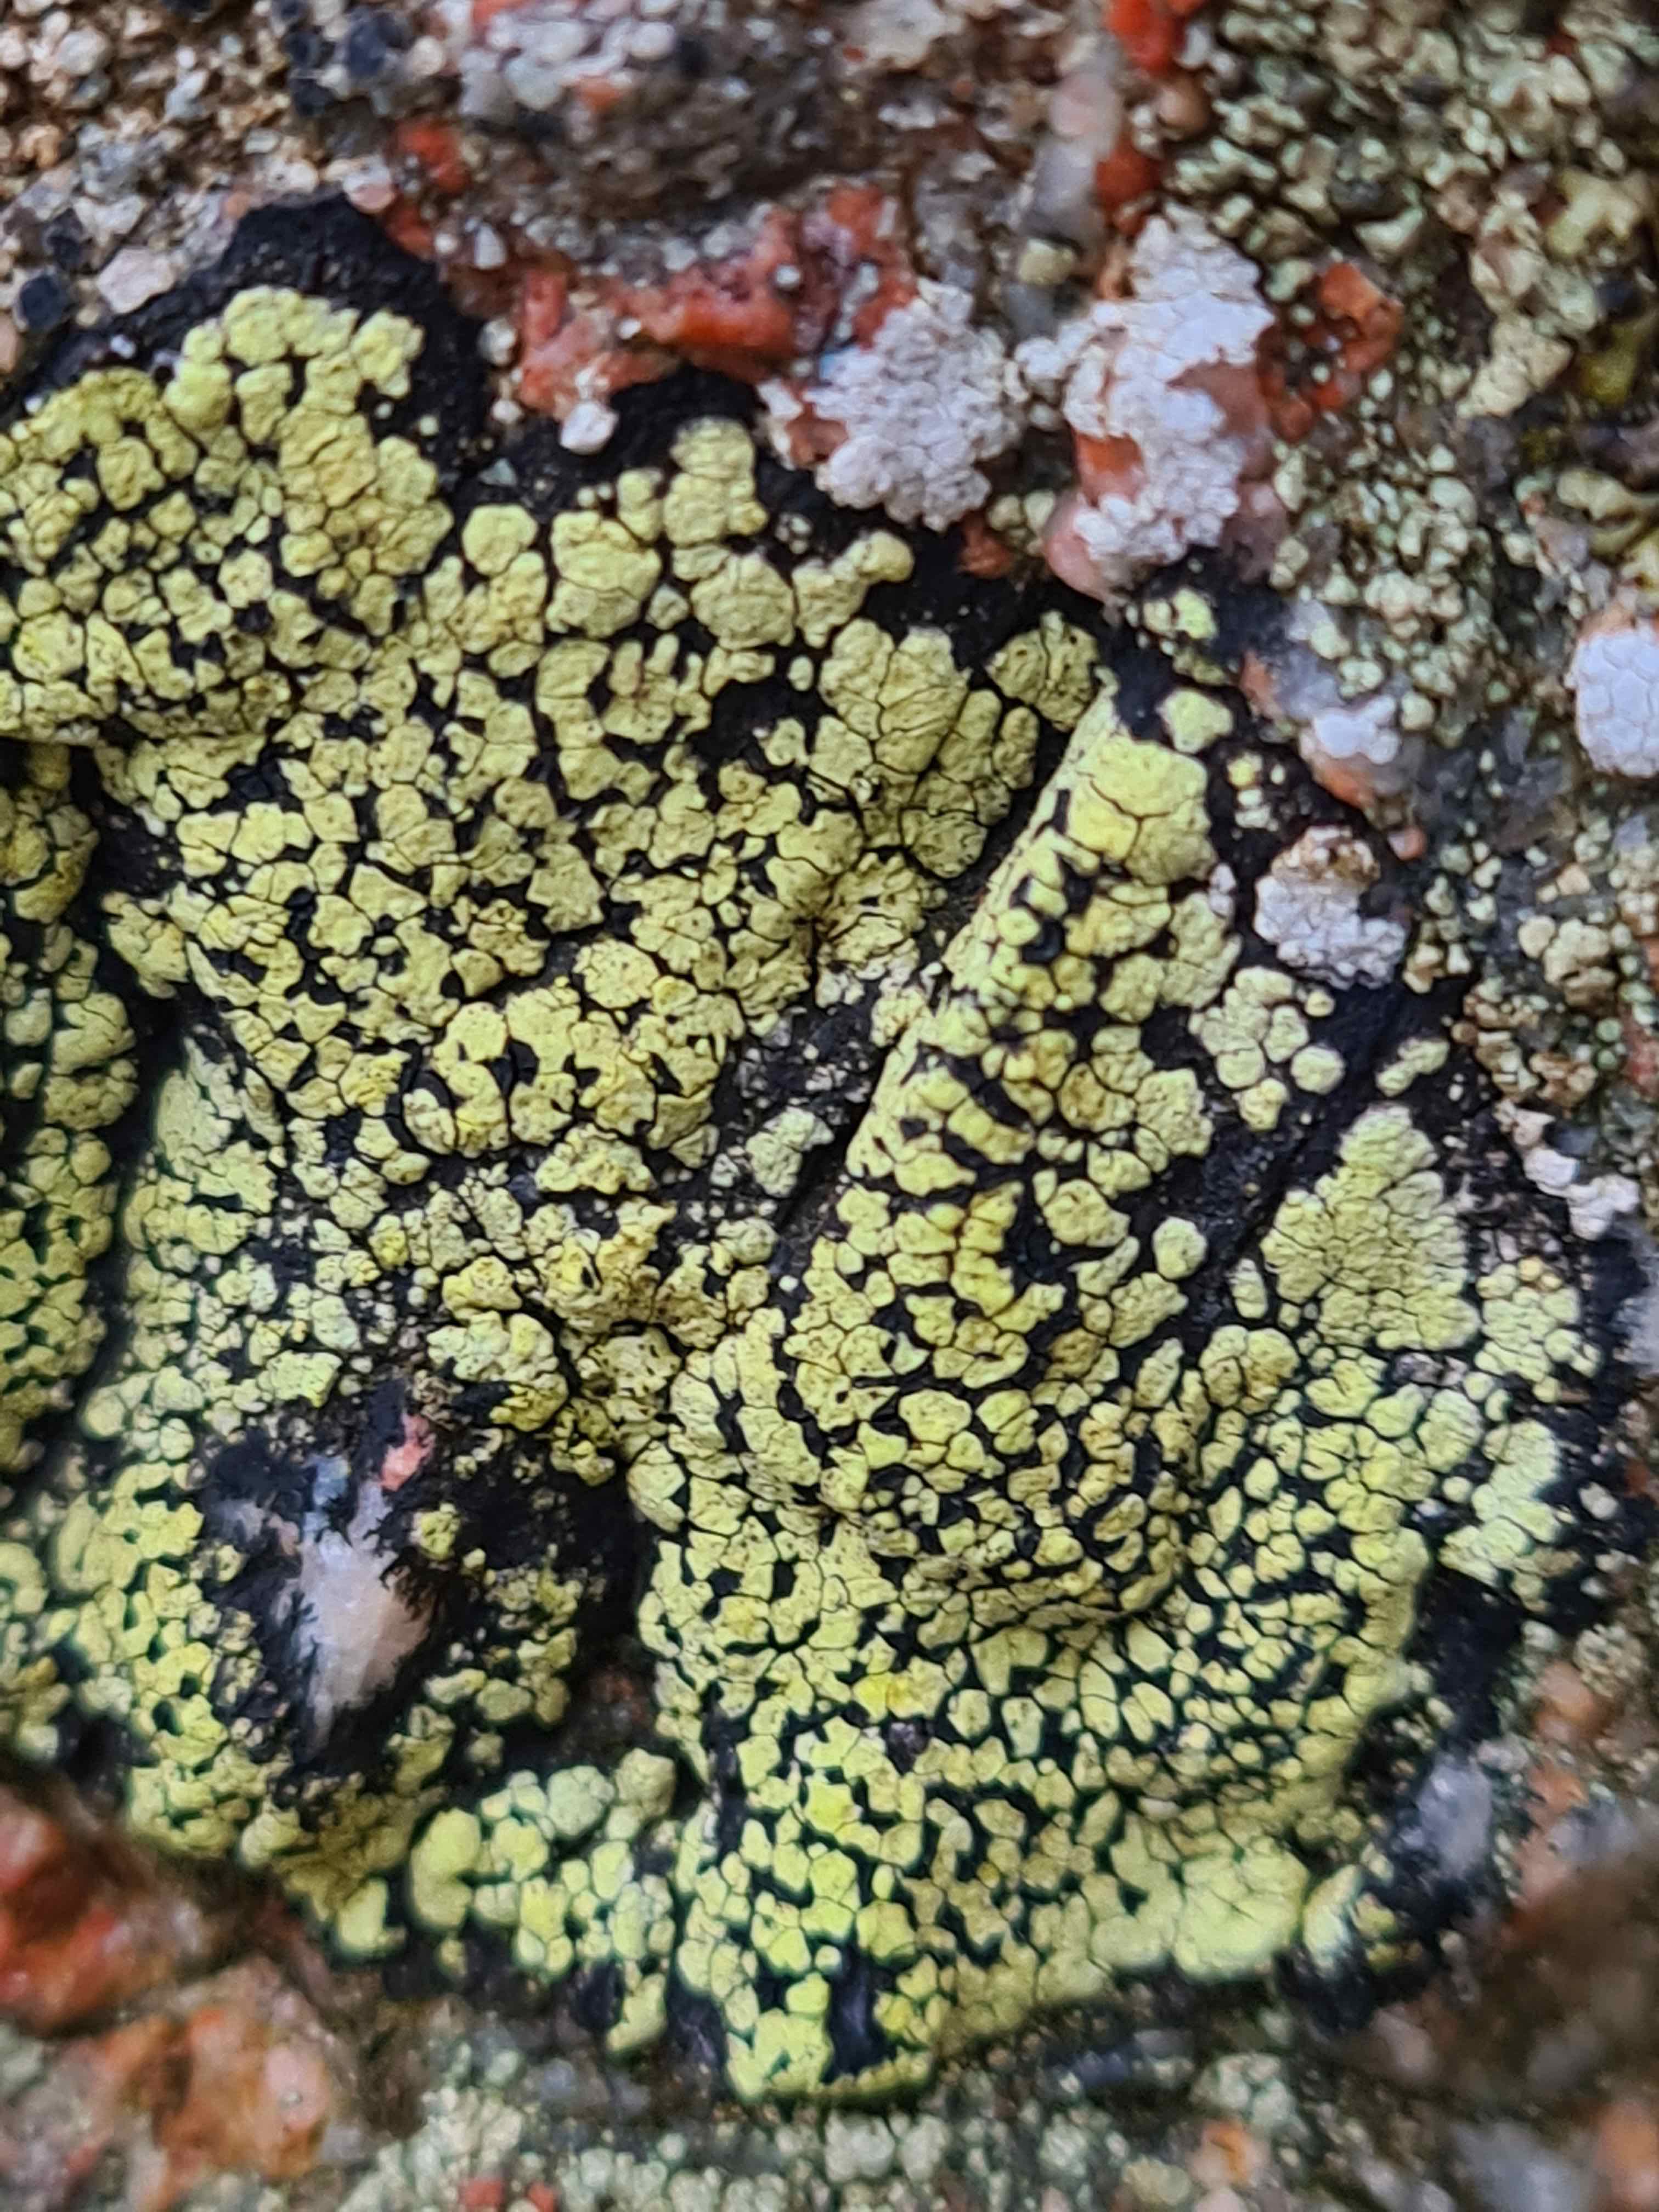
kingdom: Fungi
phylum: Ascomycota
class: Lecanoromycetes
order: Rhizocarpales
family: Rhizocarpaceae
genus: Rhizocarpon
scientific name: Rhizocarpon geographicum
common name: gulgrøn landkortlav
